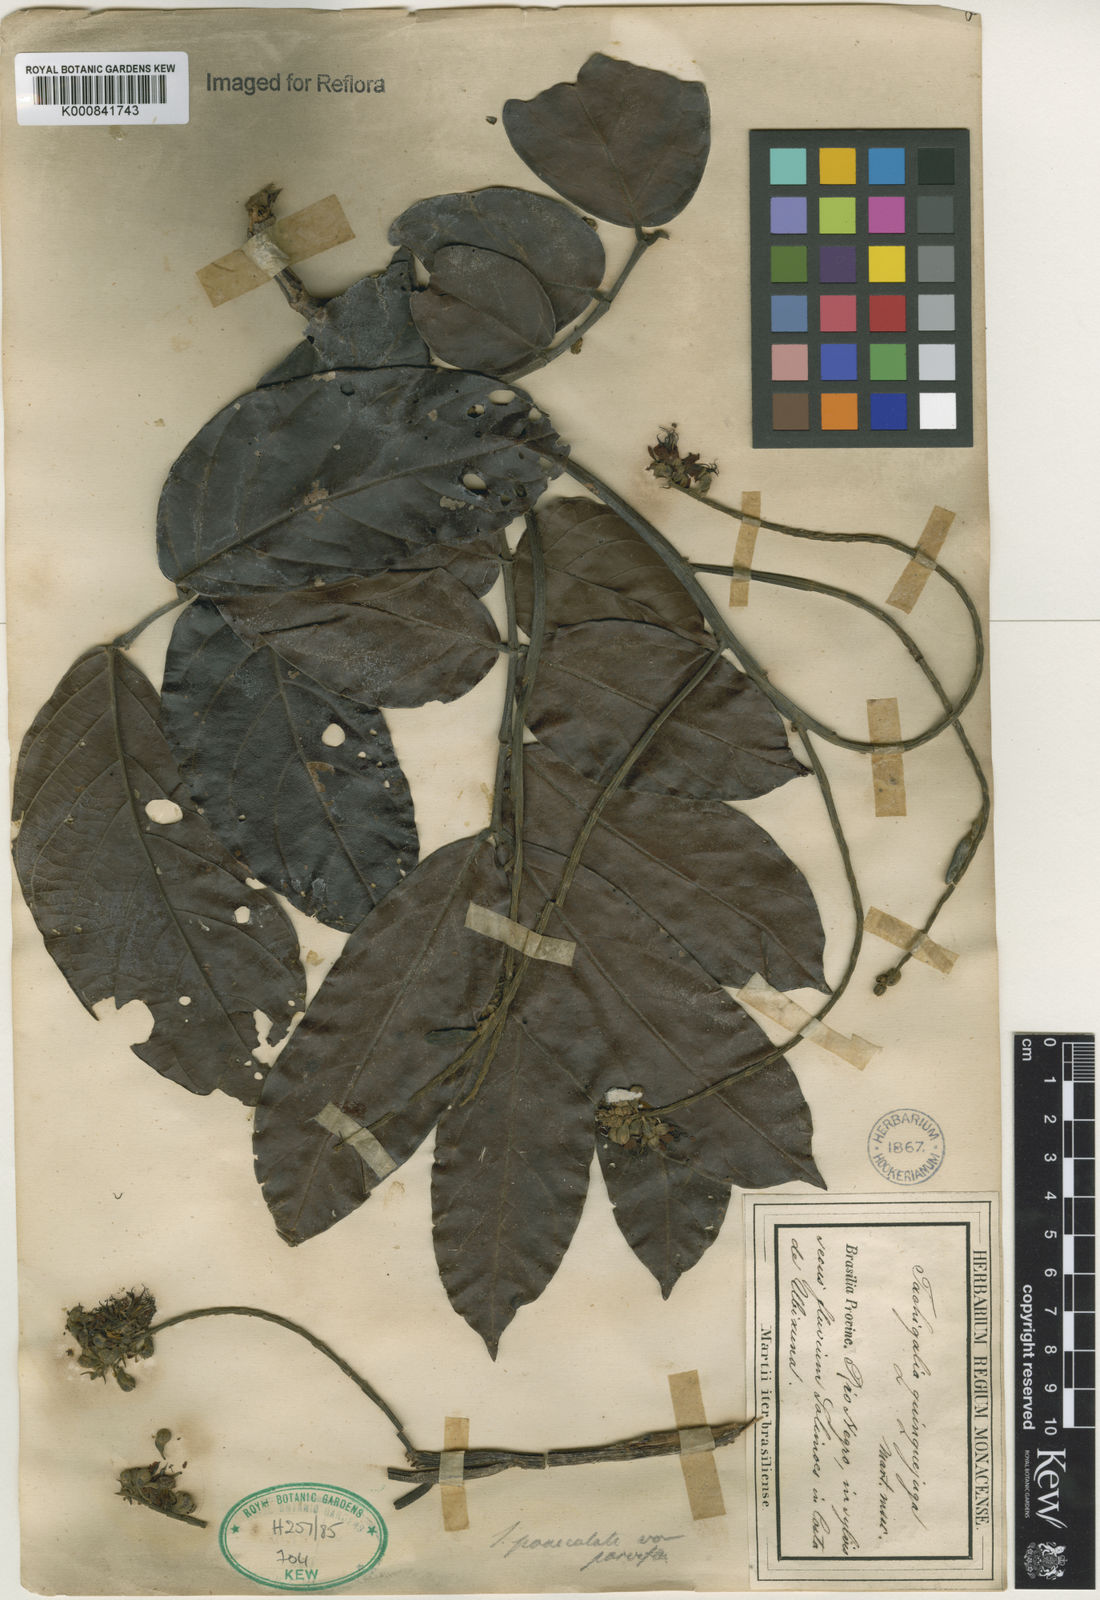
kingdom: Plantae
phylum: Tracheophyta
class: Magnoliopsida
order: Fabales
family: Fabaceae
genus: Tachigali
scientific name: Tachigali paniculata
